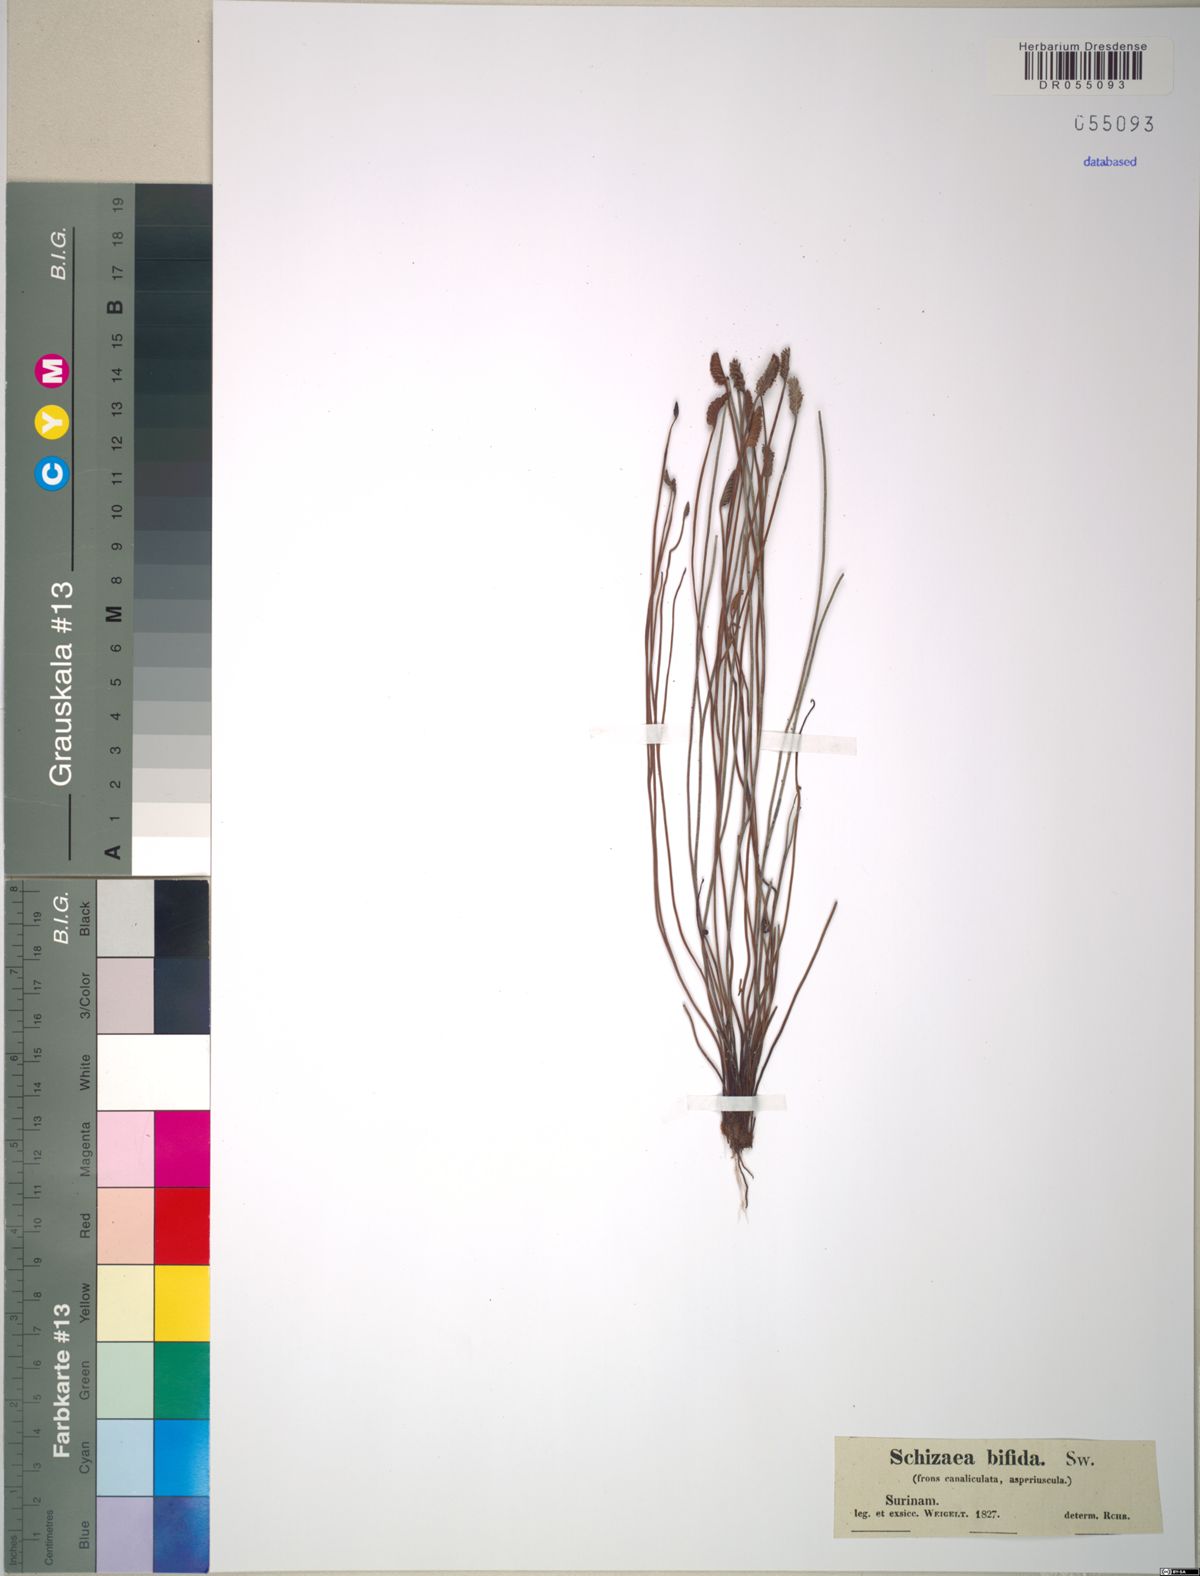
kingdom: Plantae
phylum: Tracheophyta
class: Polypodiopsida
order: Schizaeales
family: Schizaeaceae
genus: Schizaea
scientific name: Schizaea bifida
